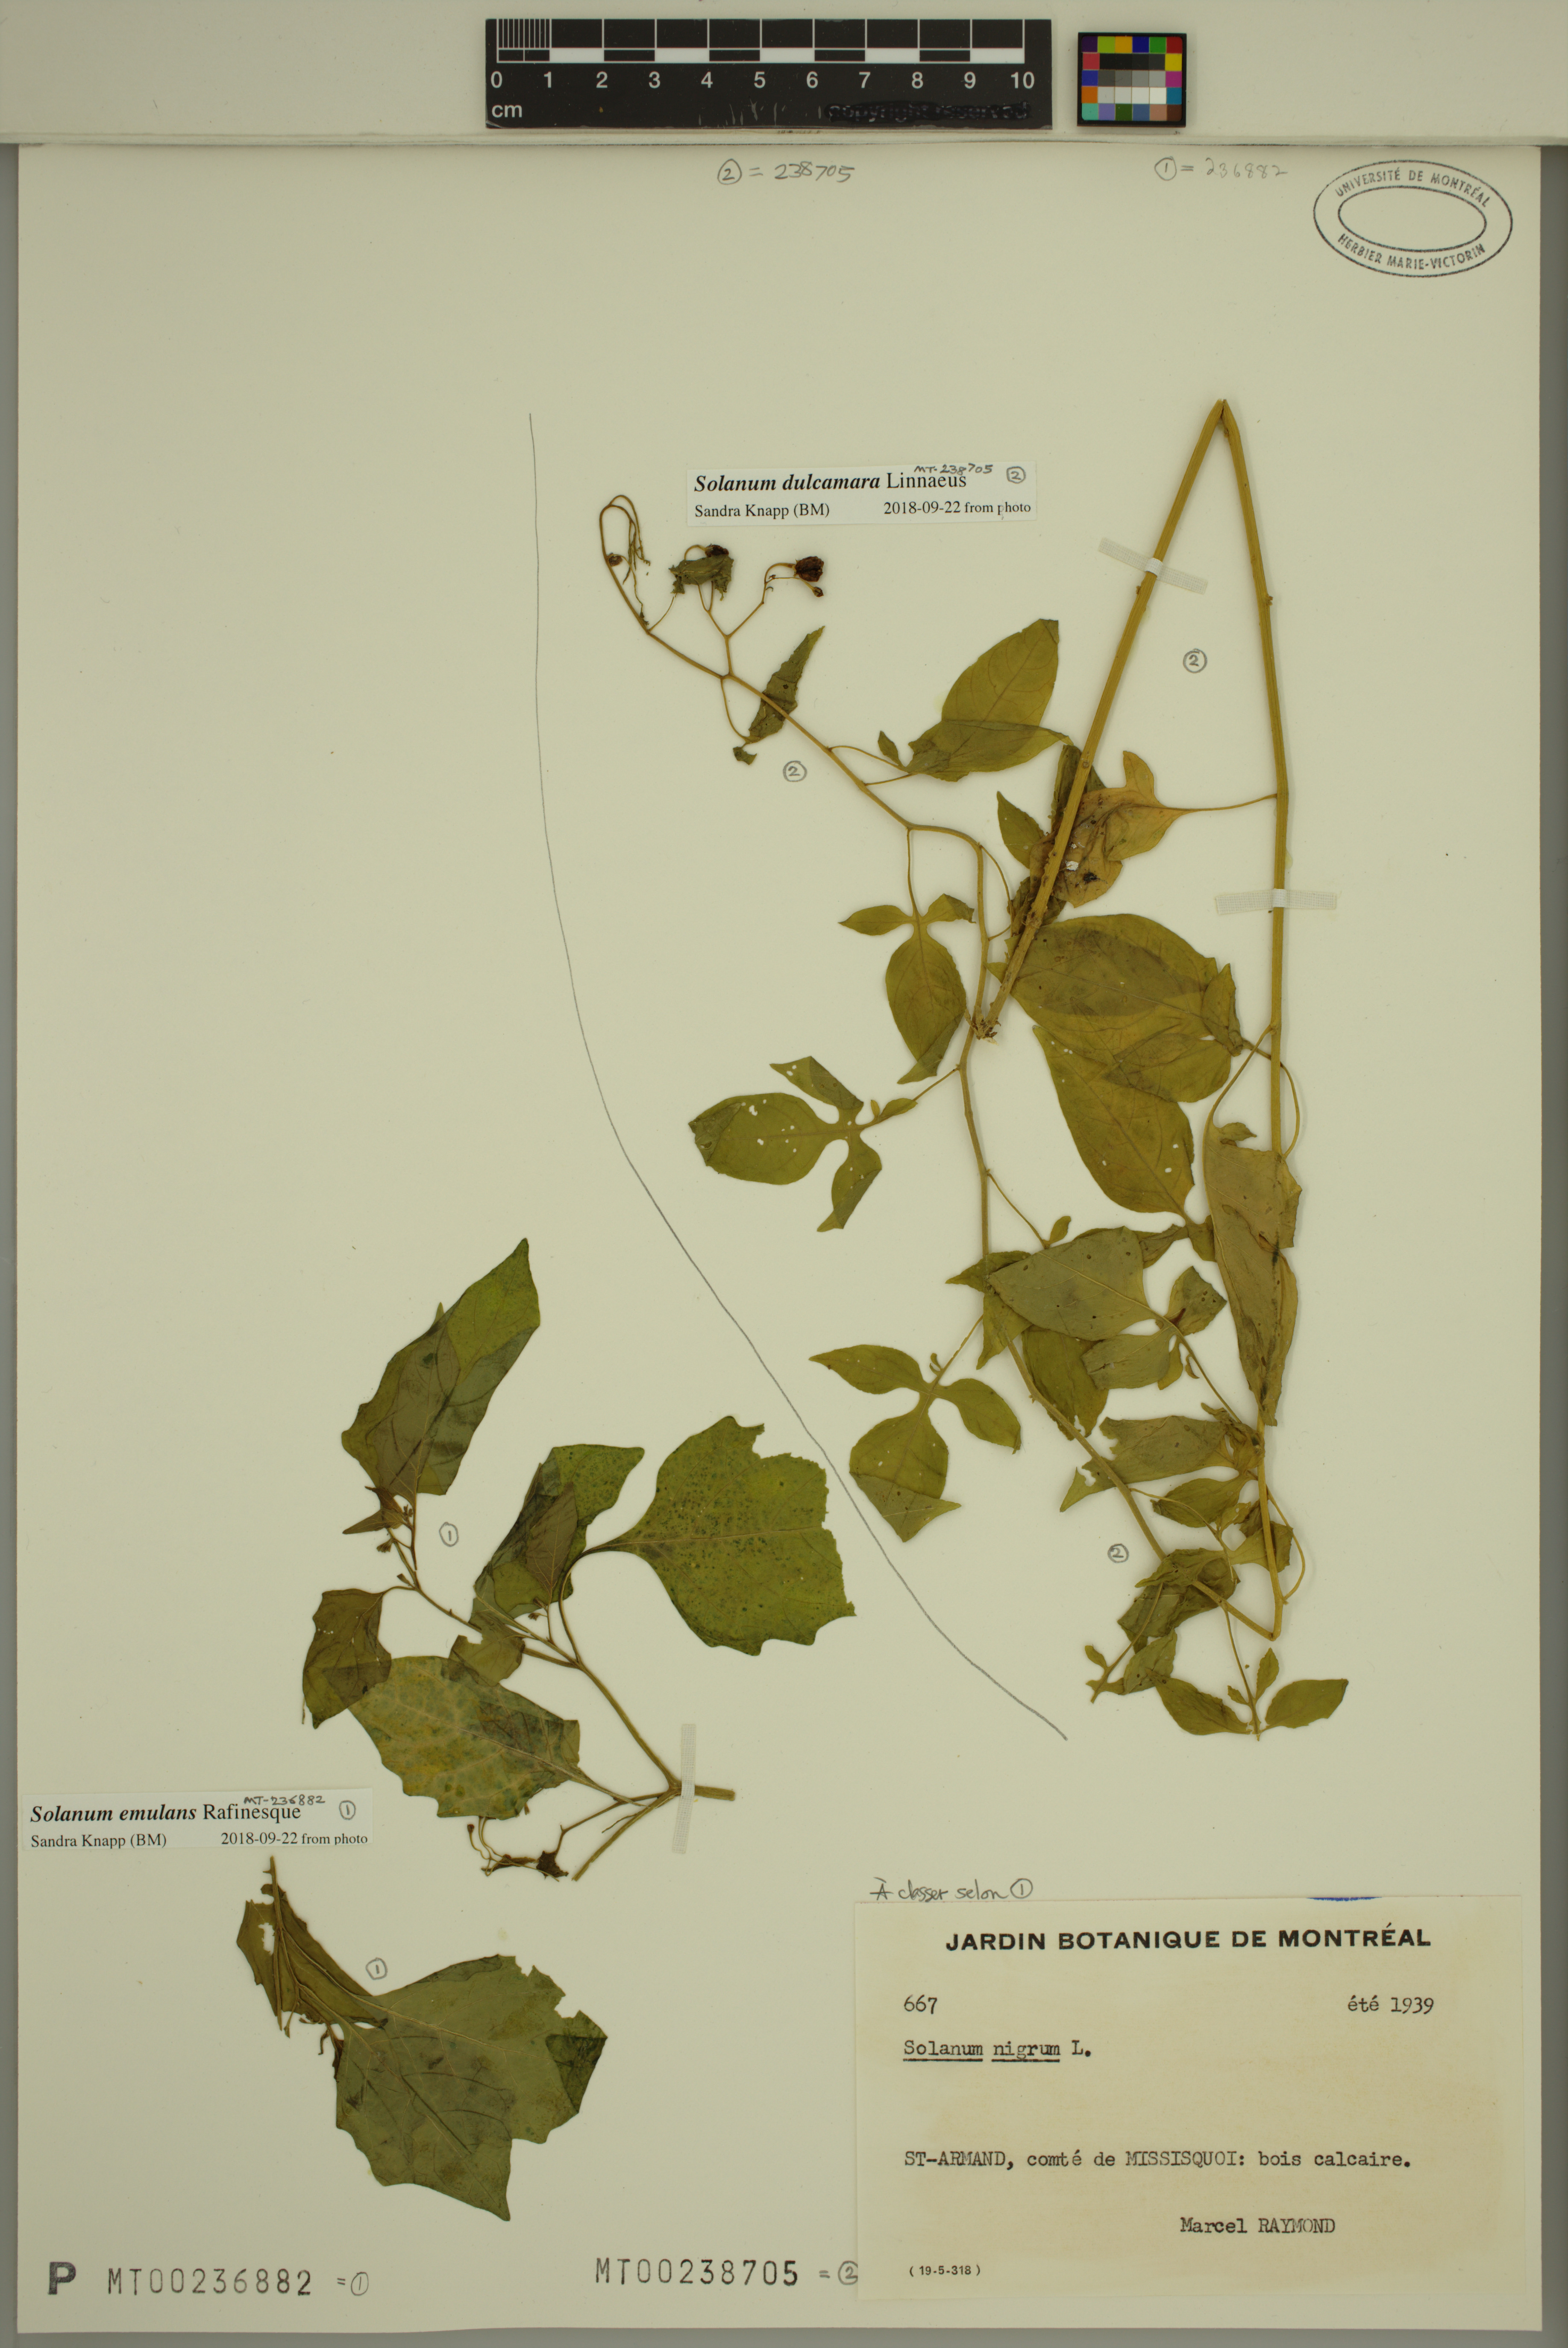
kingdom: Plantae
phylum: Tracheophyta
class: Magnoliopsida
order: Solanales
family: Solanaceae
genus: Solanum
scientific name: Solanum emulans
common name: Eastern black nightshade
